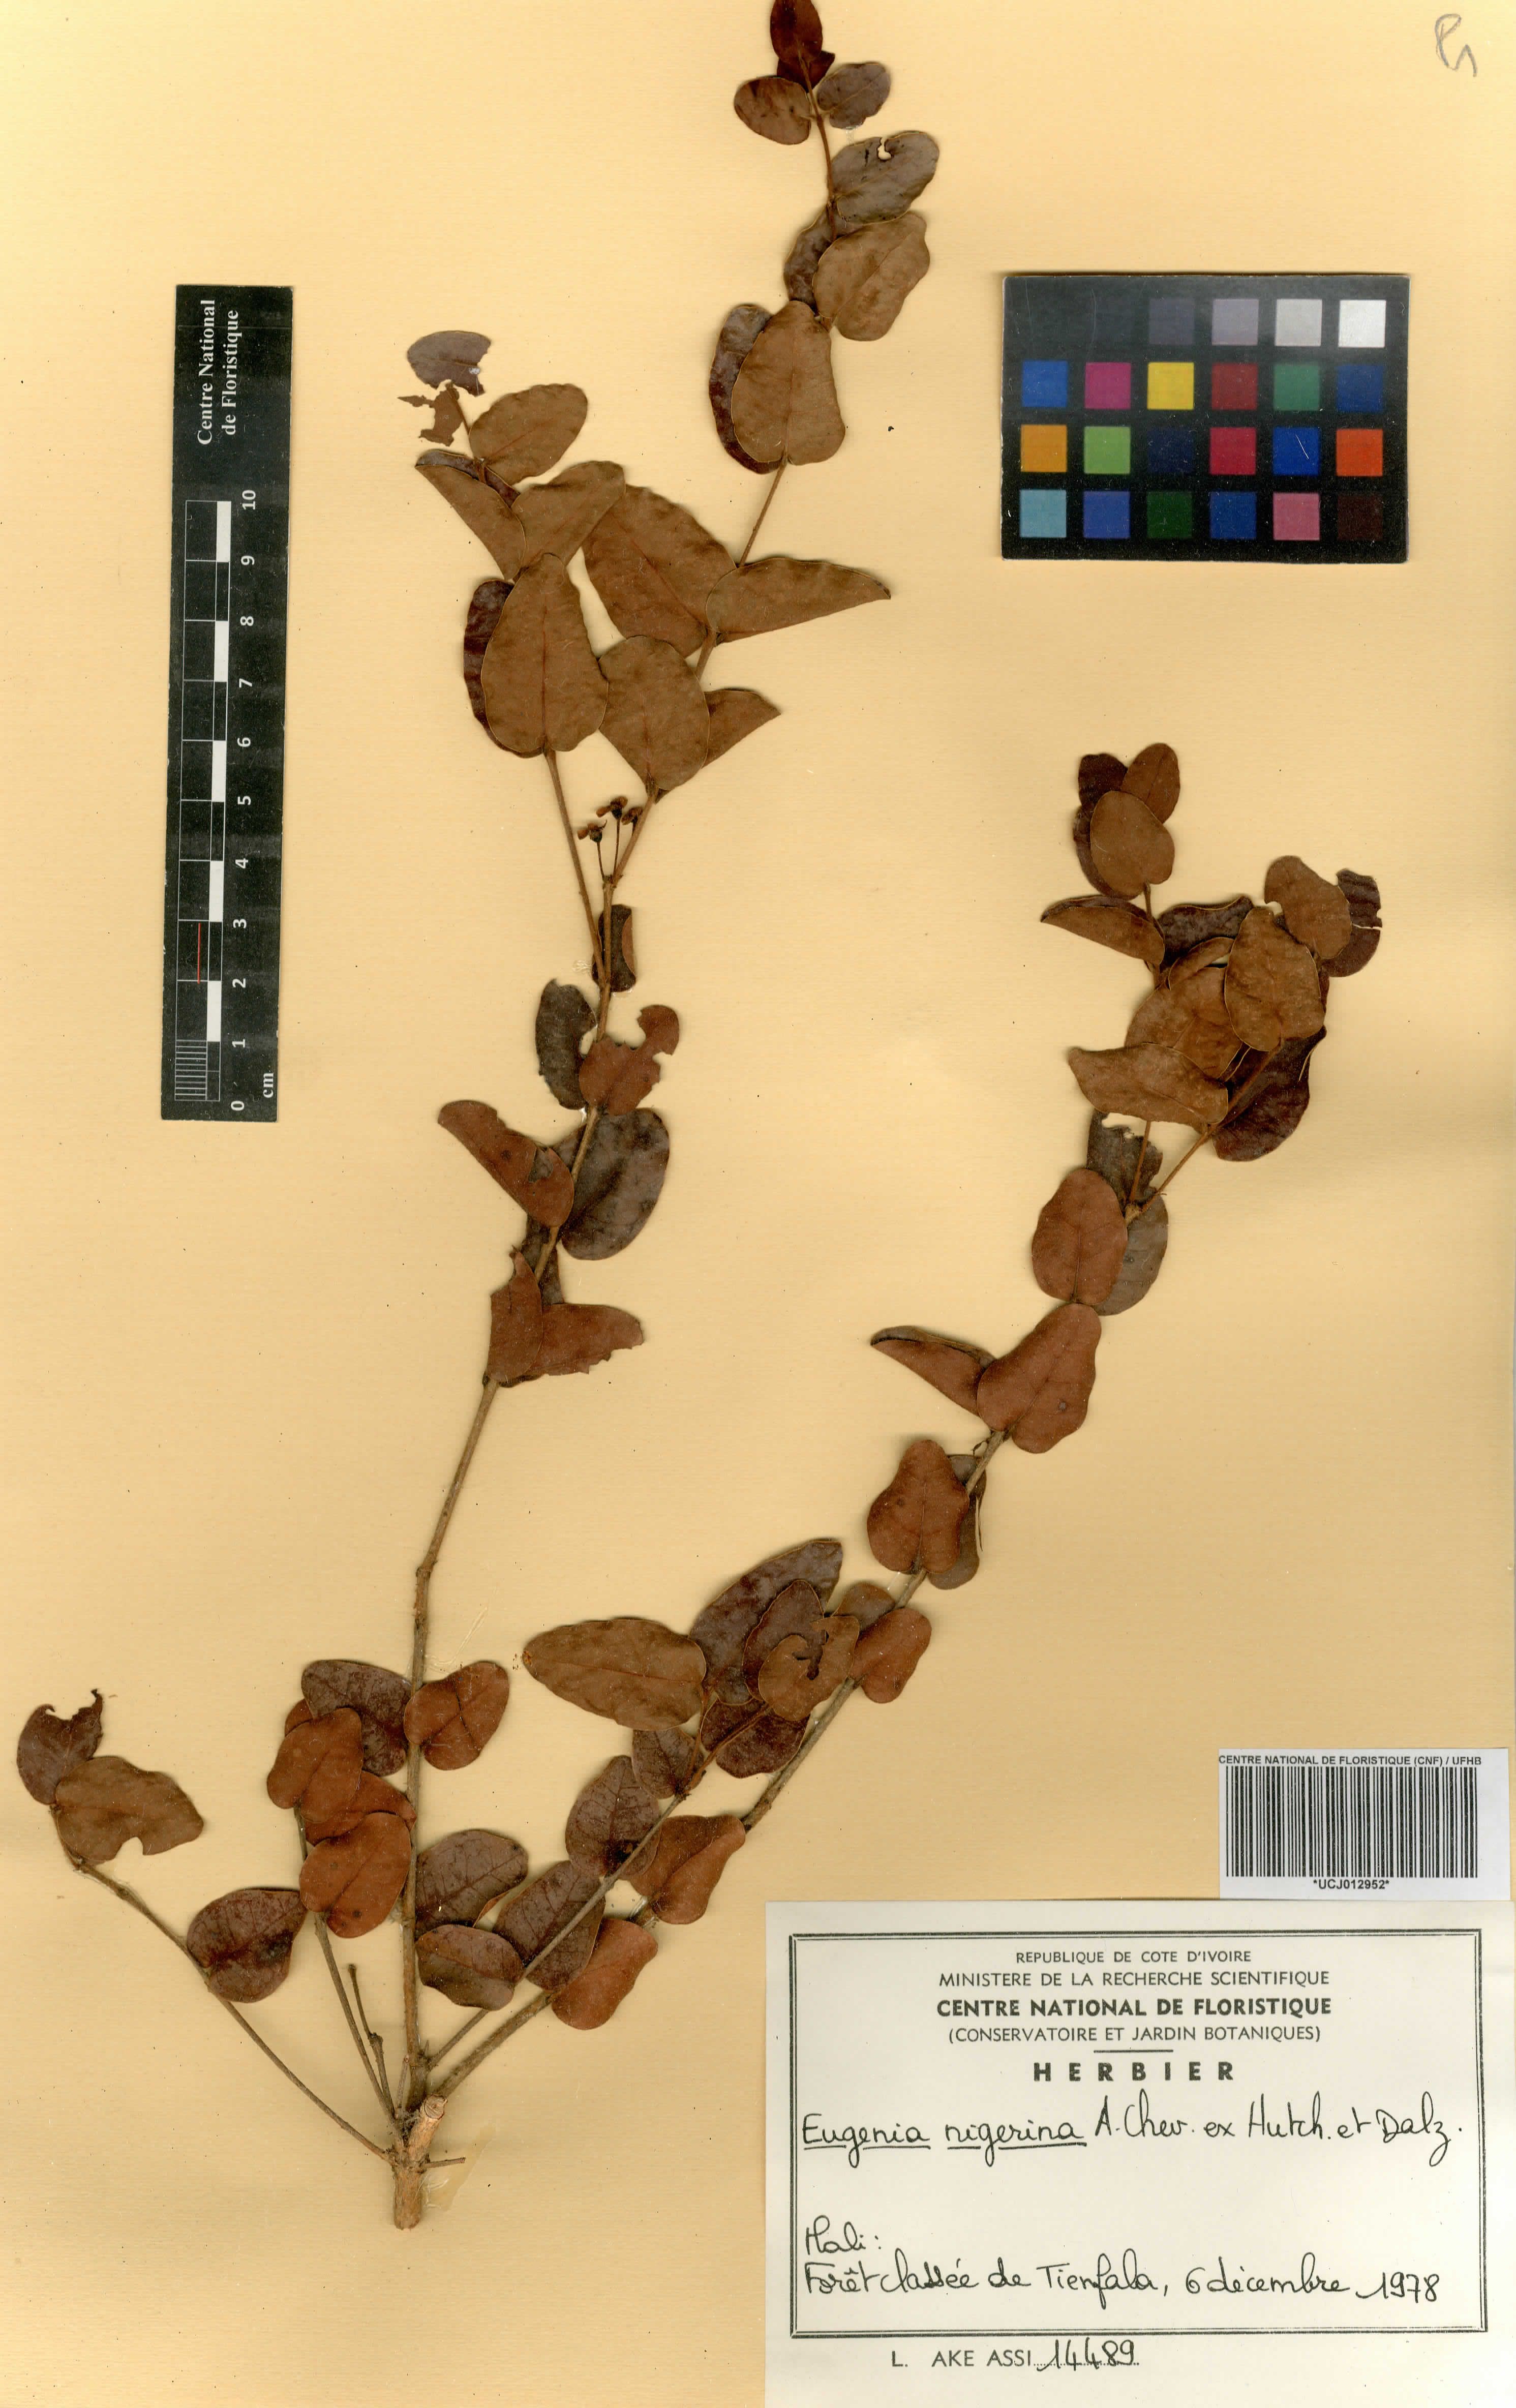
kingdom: Plantae
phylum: Tracheophyta
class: Magnoliopsida
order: Myrtales
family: Myrtaceae
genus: Eugenia
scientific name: Eugenia nigerina
